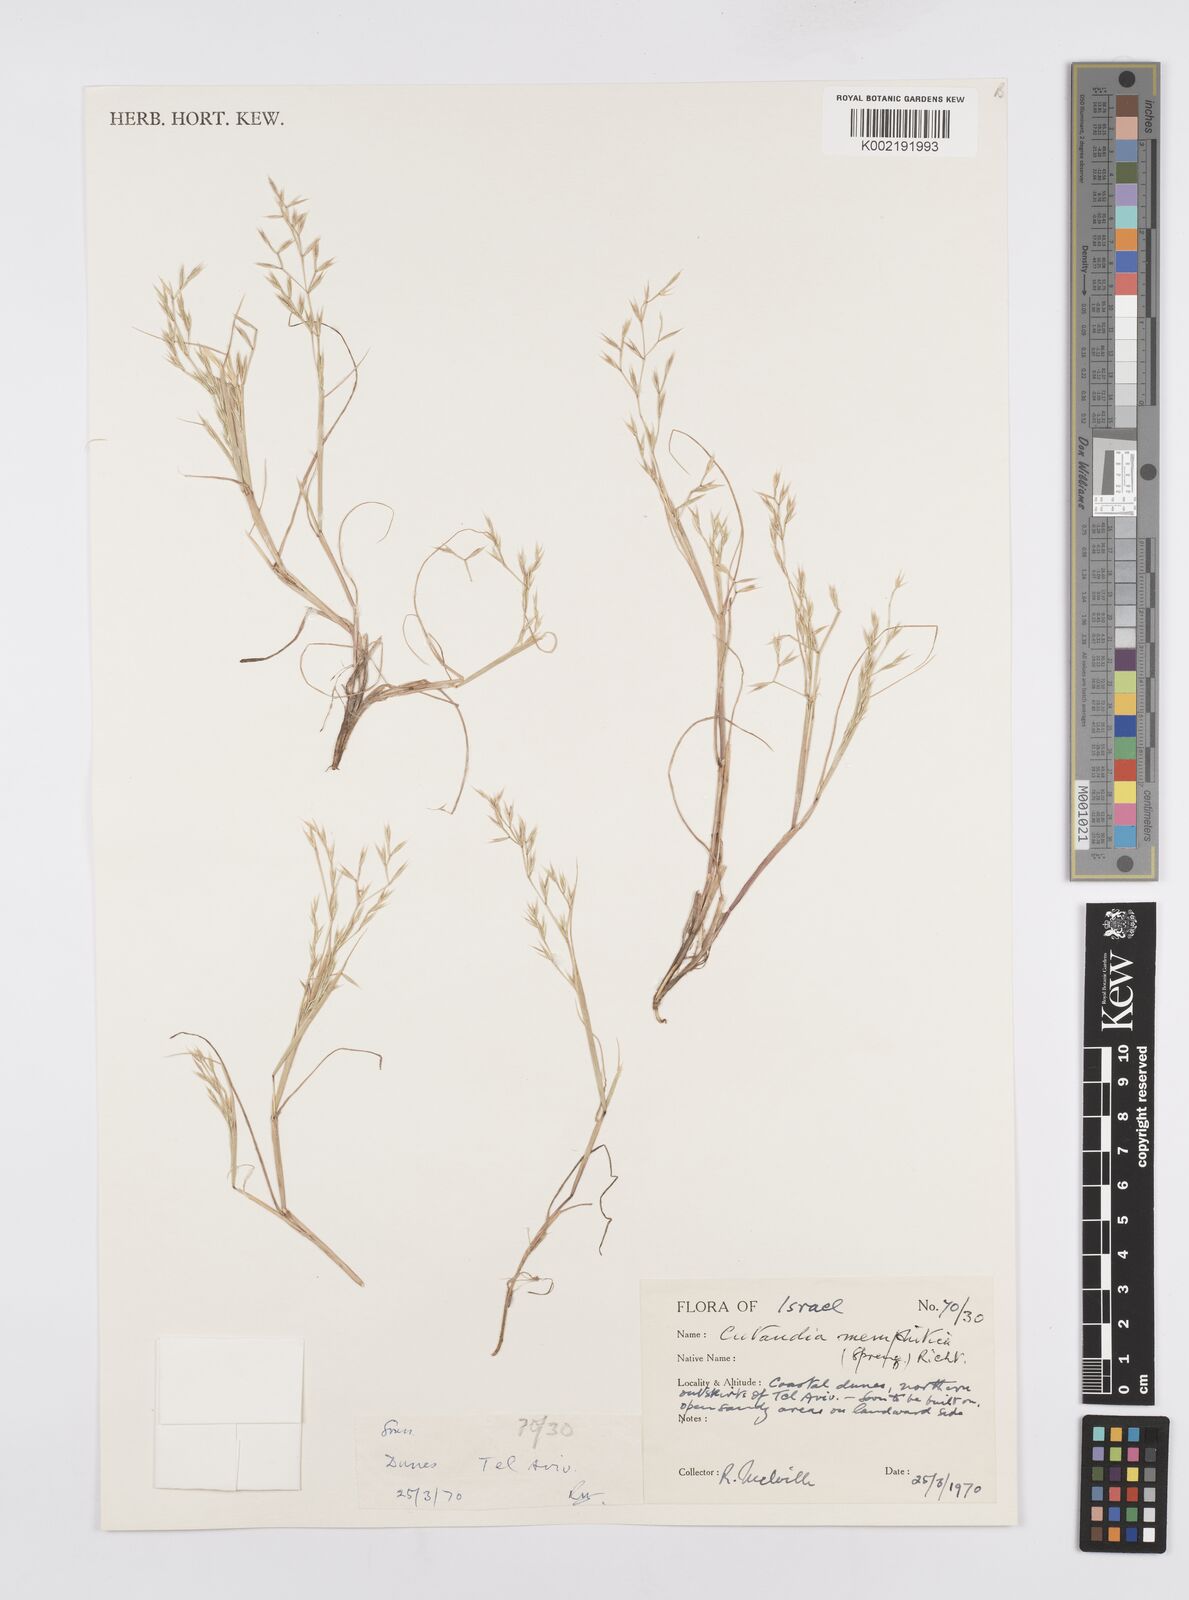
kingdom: Plantae
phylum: Tracheophyta
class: Liliopsida
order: Poales
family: Poaceae
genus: Cutandia
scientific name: Cutandia memphitica
